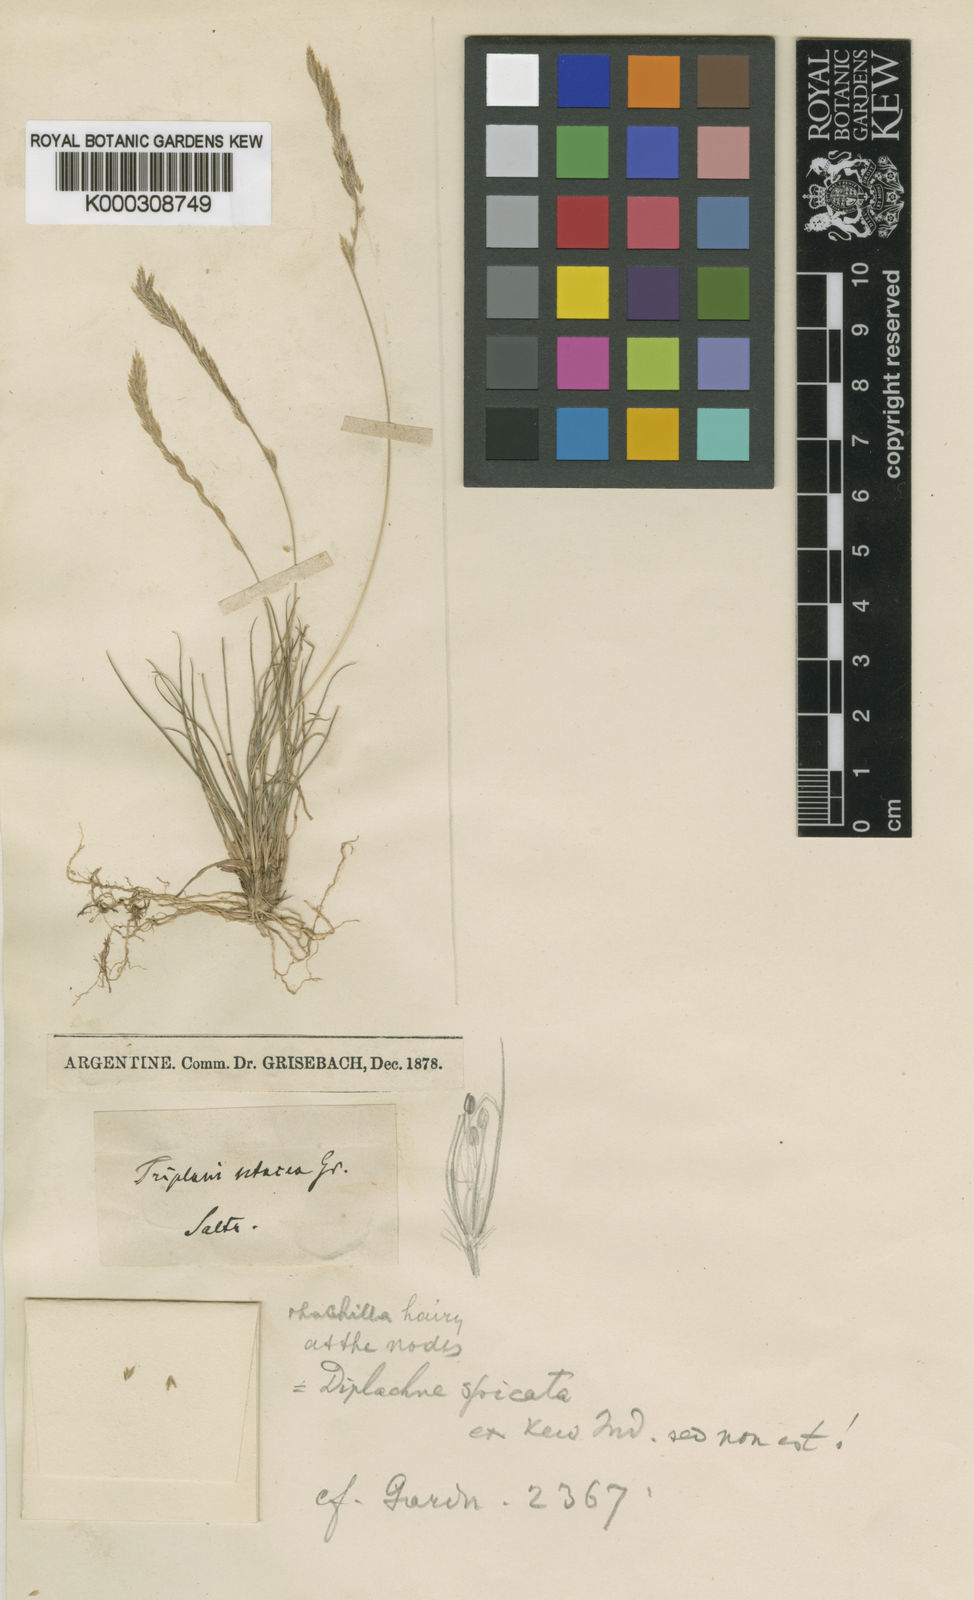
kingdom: Plantae
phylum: Tracheophyta
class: Liliopsida
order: Poales
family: Poaceae
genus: Tripogonella
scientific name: Tripogonella spicata
